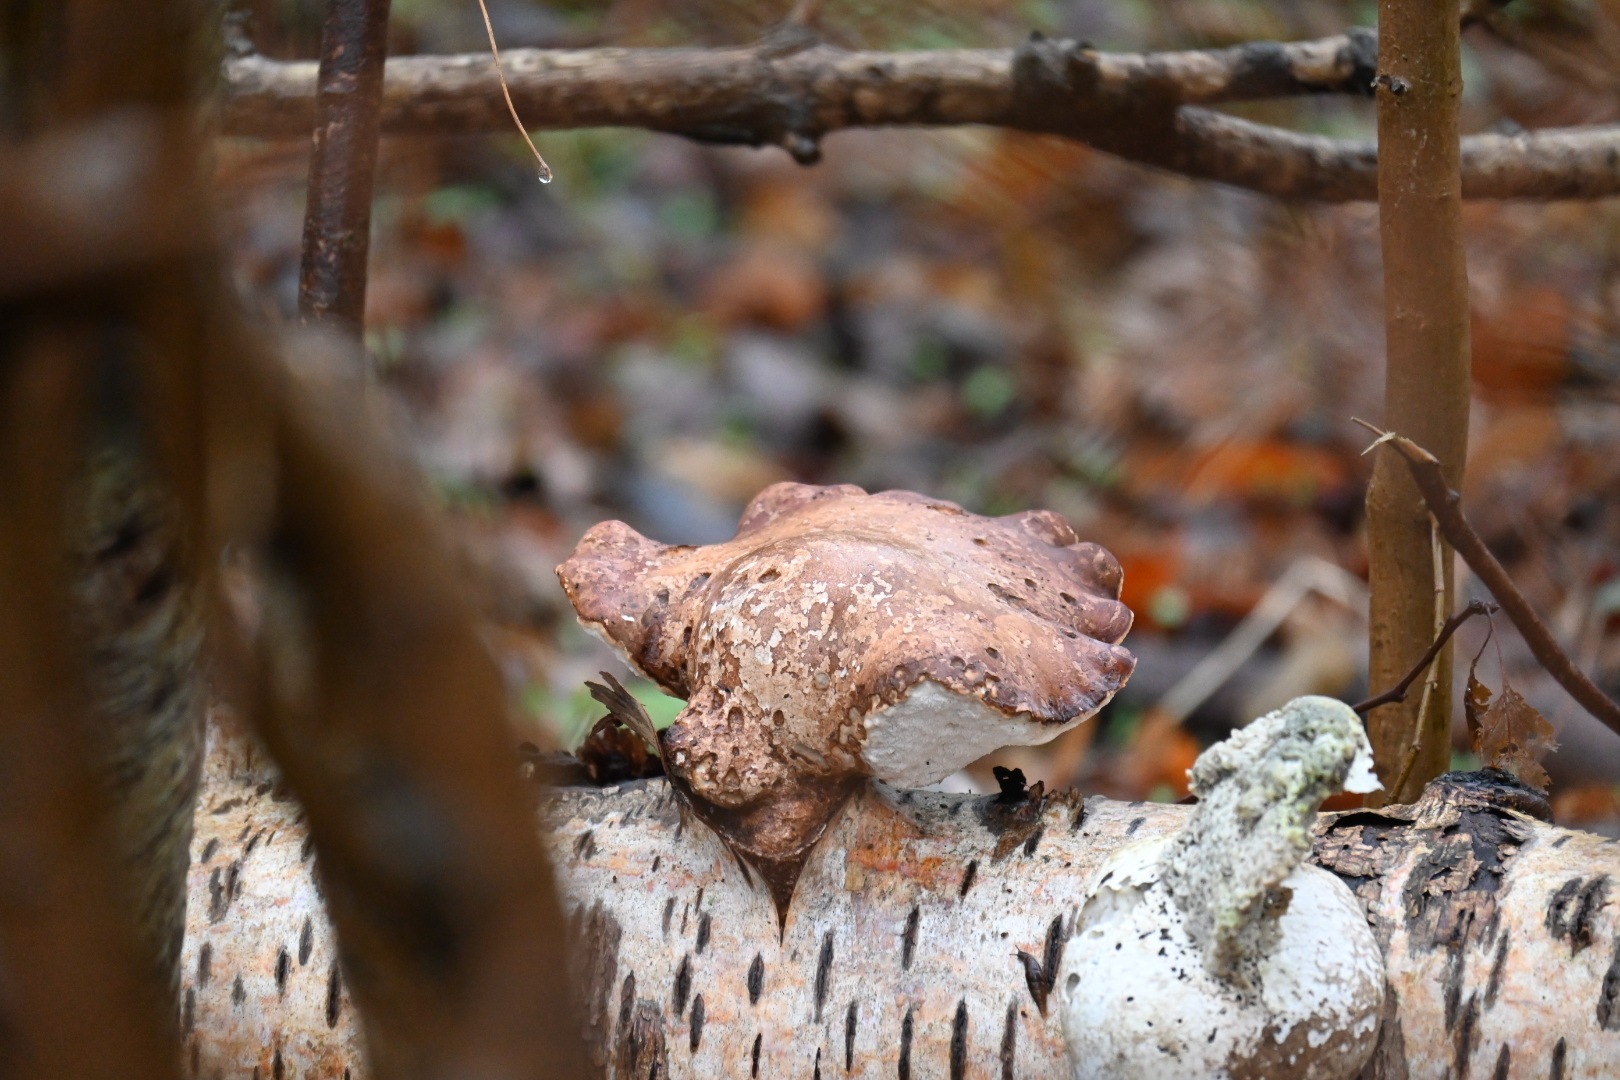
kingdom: Fungi
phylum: Basidiomycota
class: Agaricomycetes
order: Polyporales
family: Fomitopsidaceae
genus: Fomitopsis
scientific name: Fomitopsis betulina
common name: birkeporesvamp
